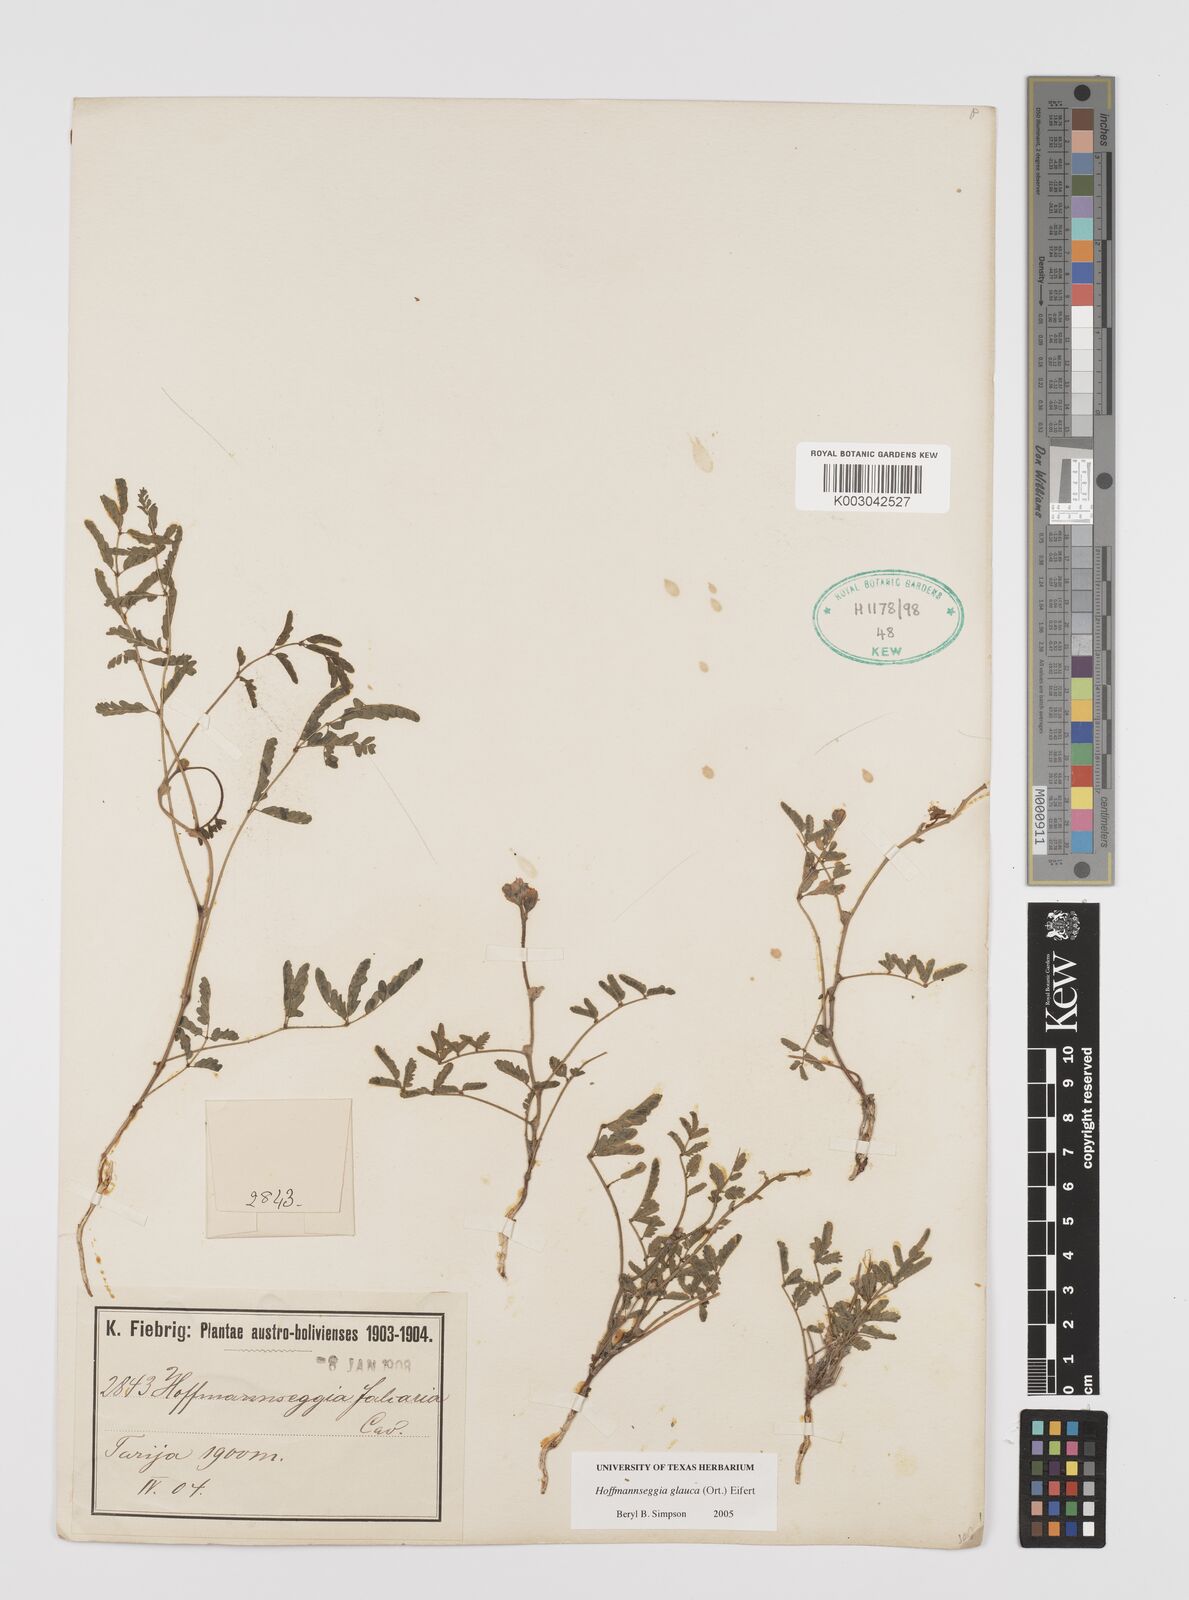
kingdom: Plantae
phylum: Tracheophyta
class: Magnoliopsida
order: Fabales
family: Fabaceae
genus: Hoffmannseggia
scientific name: Hoffmannseggia glauca
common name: Pignut
